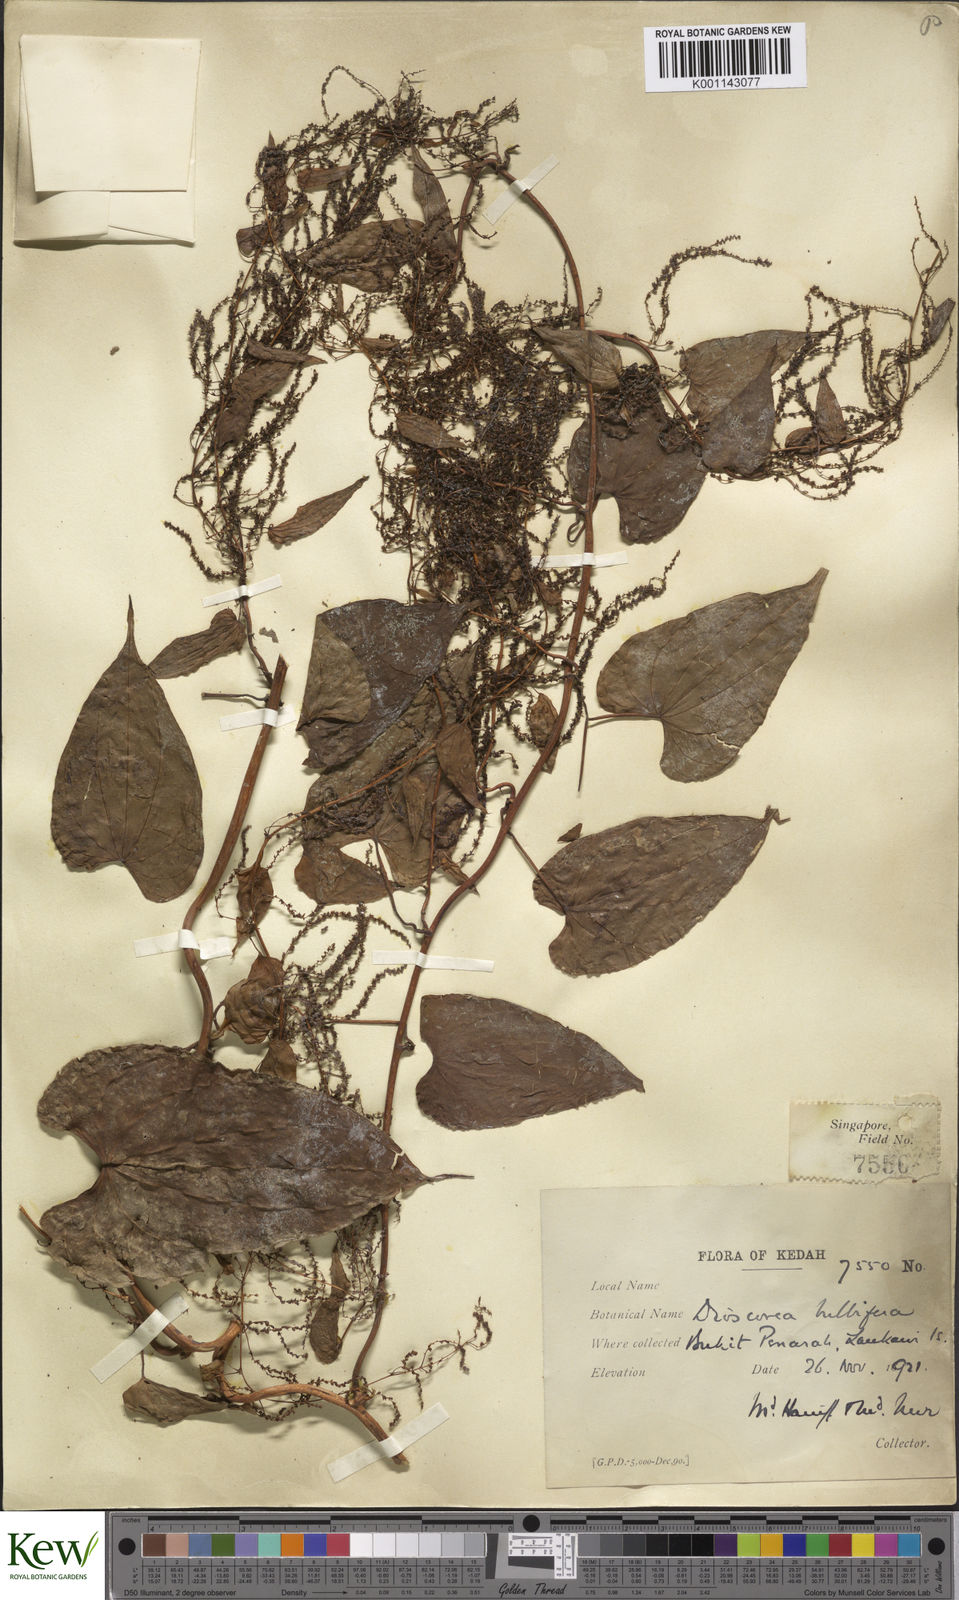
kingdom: Plantae
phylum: Tracheophyta
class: Liliopsida
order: Dioscoreales
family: Dioscoreaceae
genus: Dioscorea
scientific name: Dioscorea bulbifera
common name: Air yam
